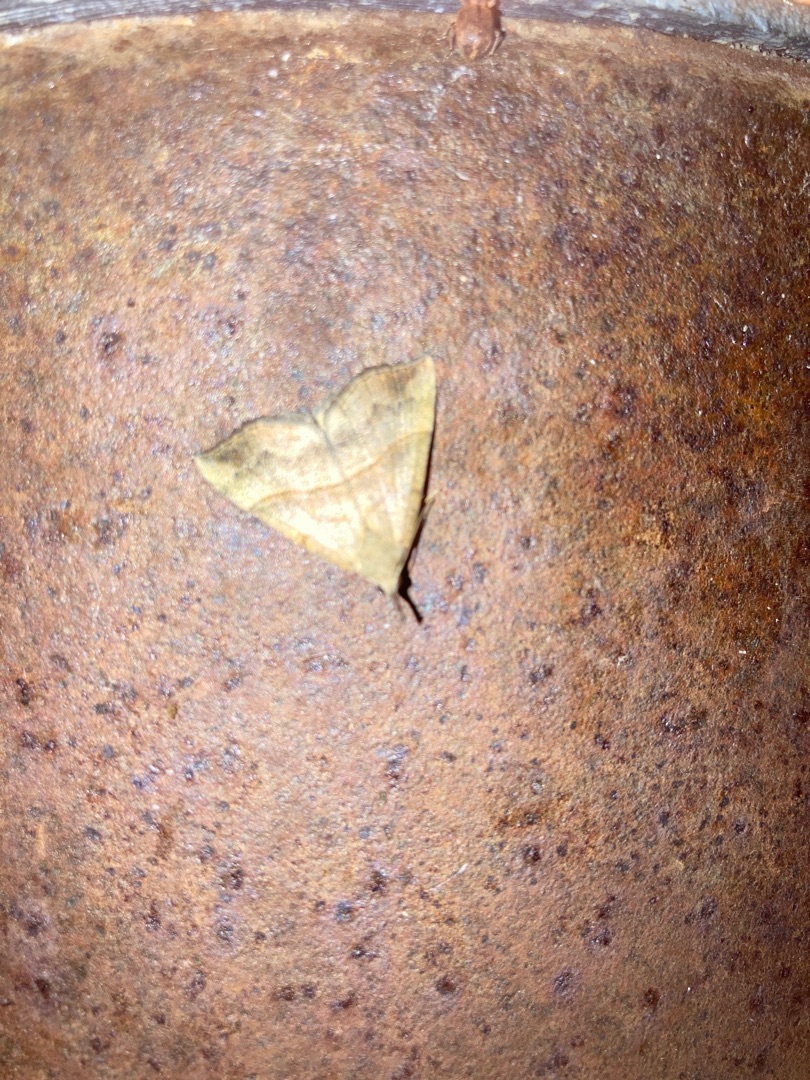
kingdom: Animalia
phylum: Arthropoda
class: Insecta
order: Lepidoptera
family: Erebidae
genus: Hypena
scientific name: Hypena proboscidalis
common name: Snudeugle
